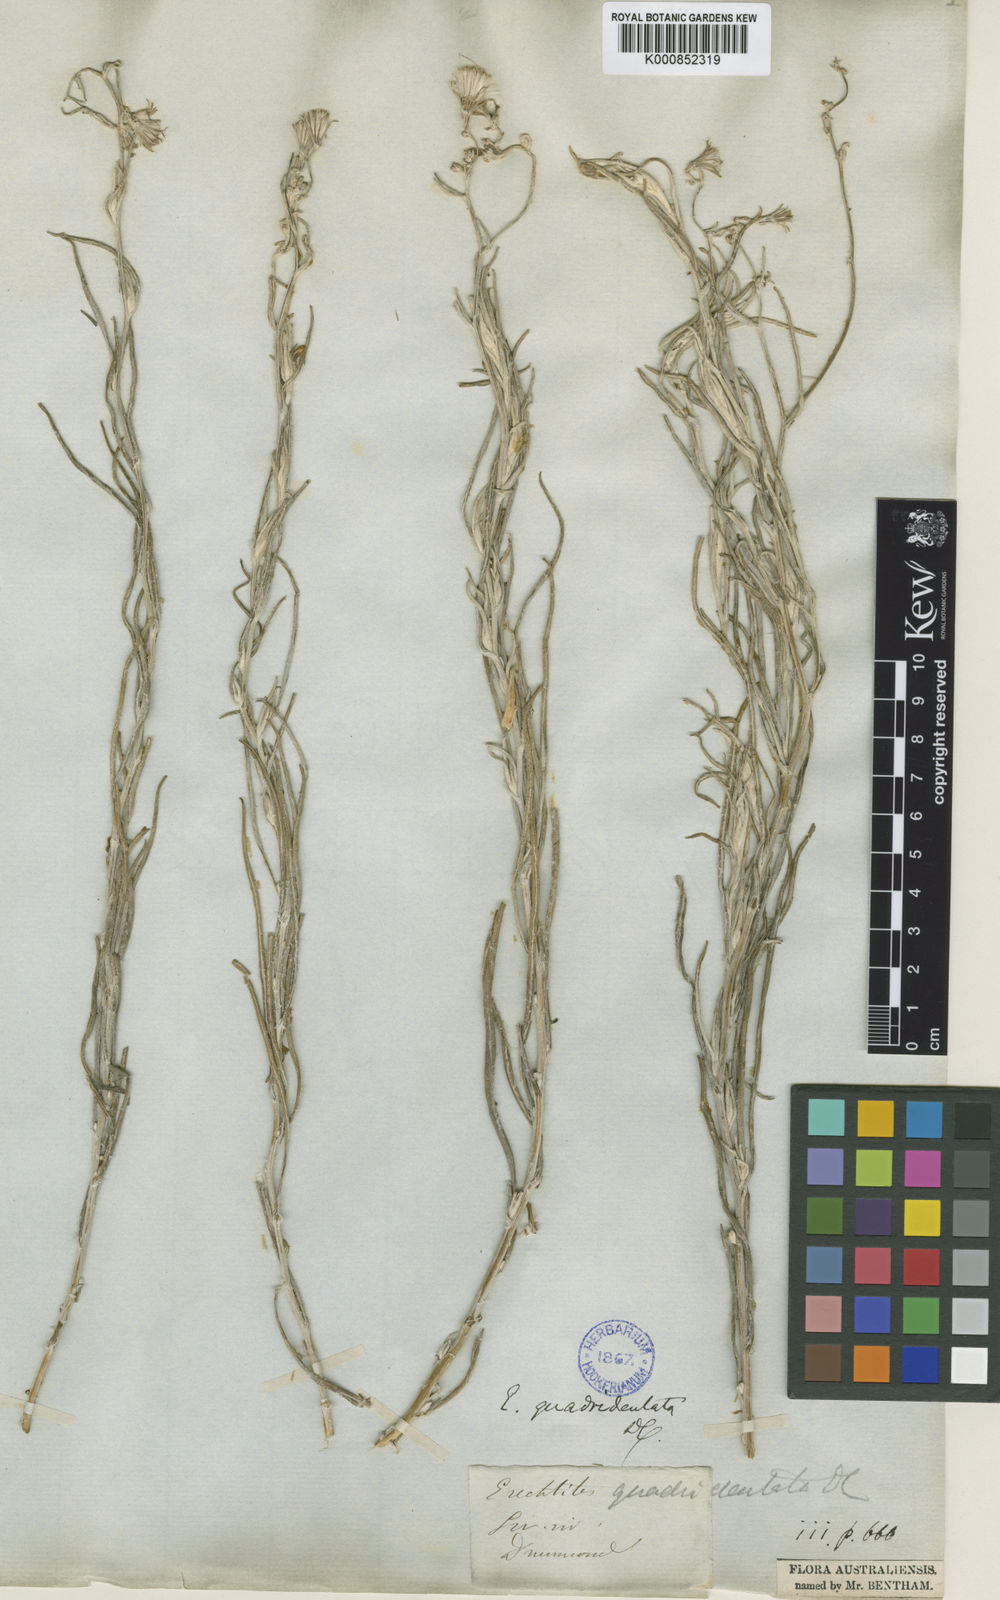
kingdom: Plantae
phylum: Tracheophyta
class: Magnoliopsida
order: Asterales
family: Asteraceae
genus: Senecio
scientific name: Senecio quadridentatus
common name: Cotton fireweed
